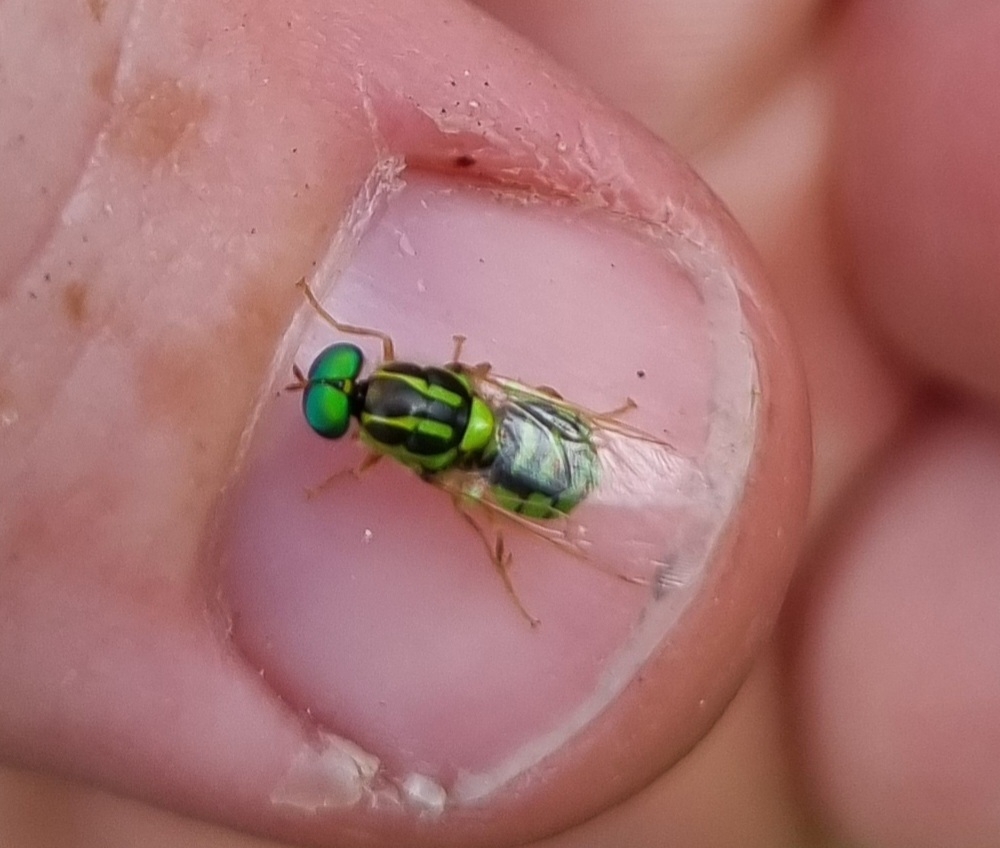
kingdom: Animalia
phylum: Arthropoda
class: Insecta
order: Diptera
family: Stratiomyidae
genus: Oxycera
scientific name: Oxycera trilineata
